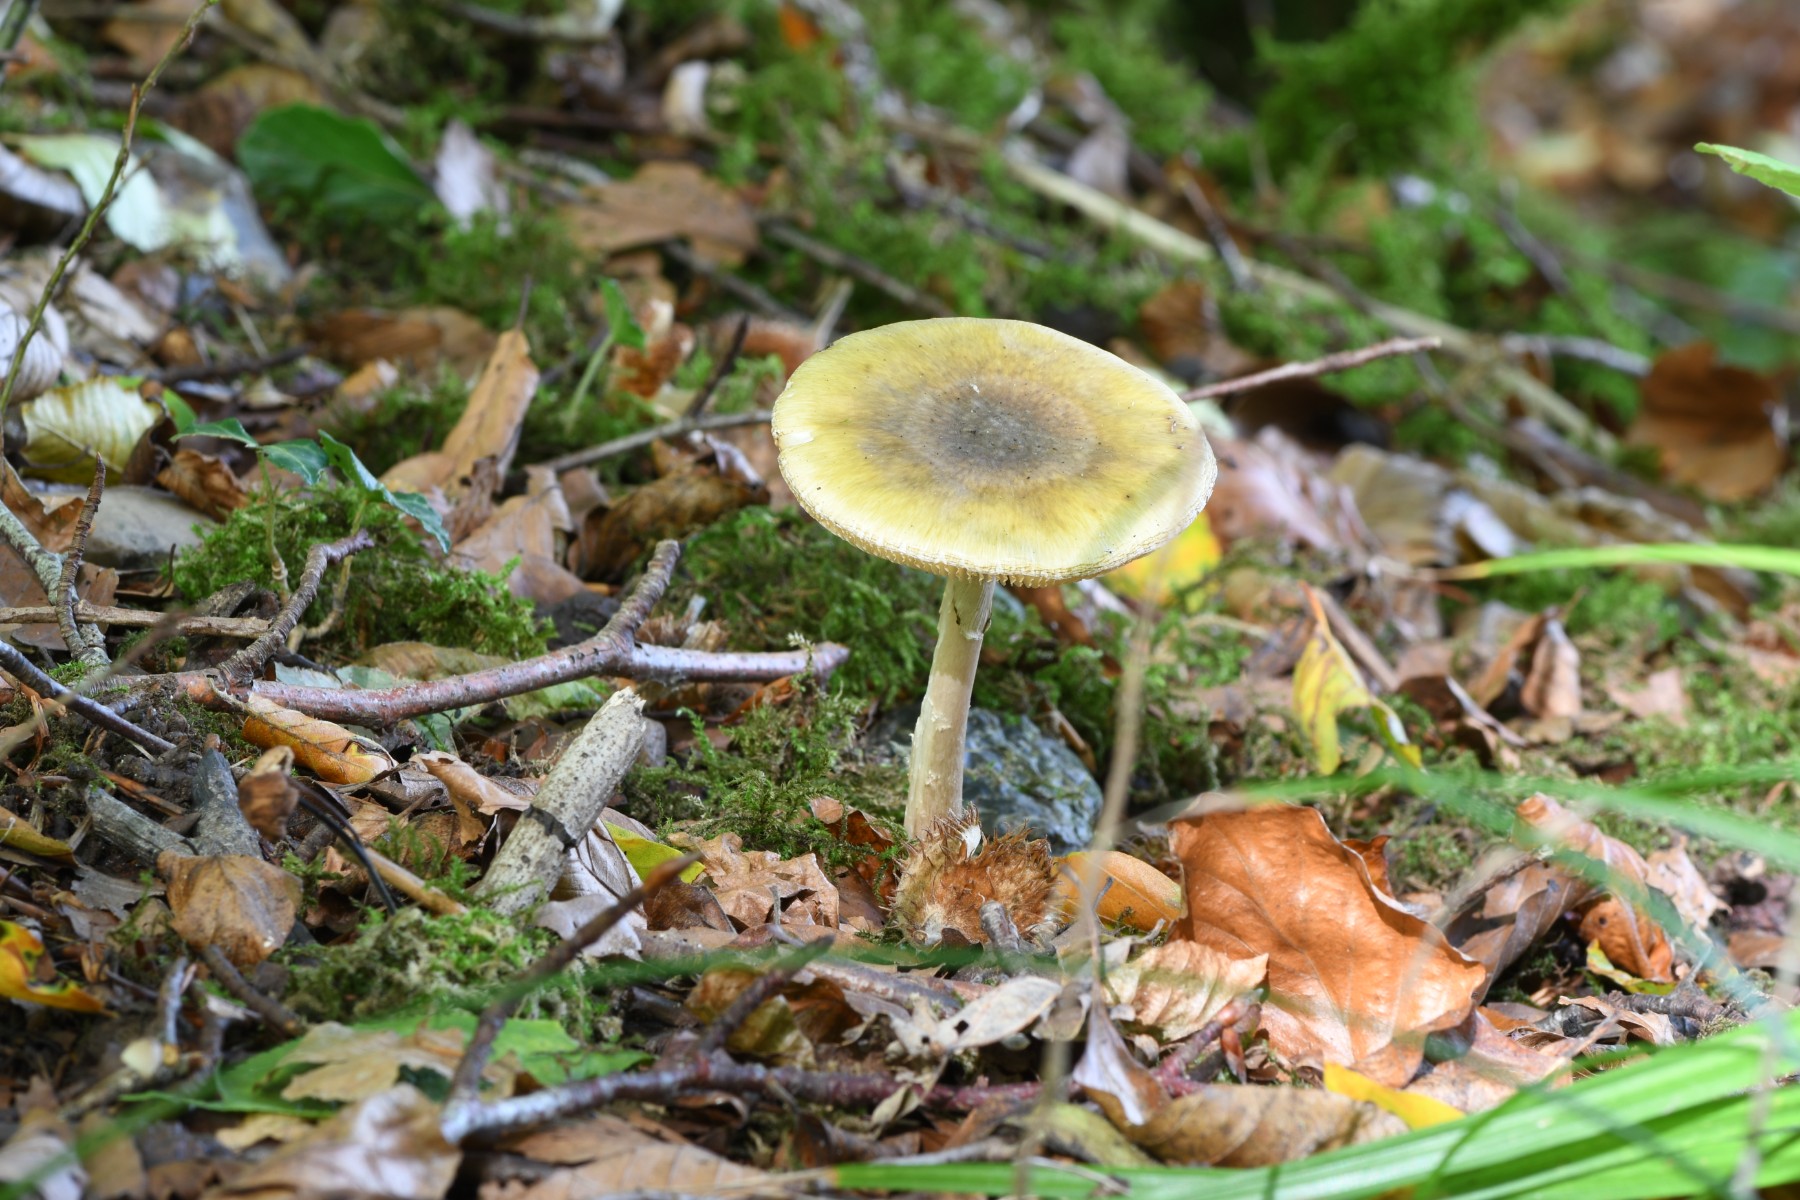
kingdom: Fungi
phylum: Basidiomycota
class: Agaricomycetes
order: Agaricales
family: Amanitaceae
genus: Amanita
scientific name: Amanita phalloides
